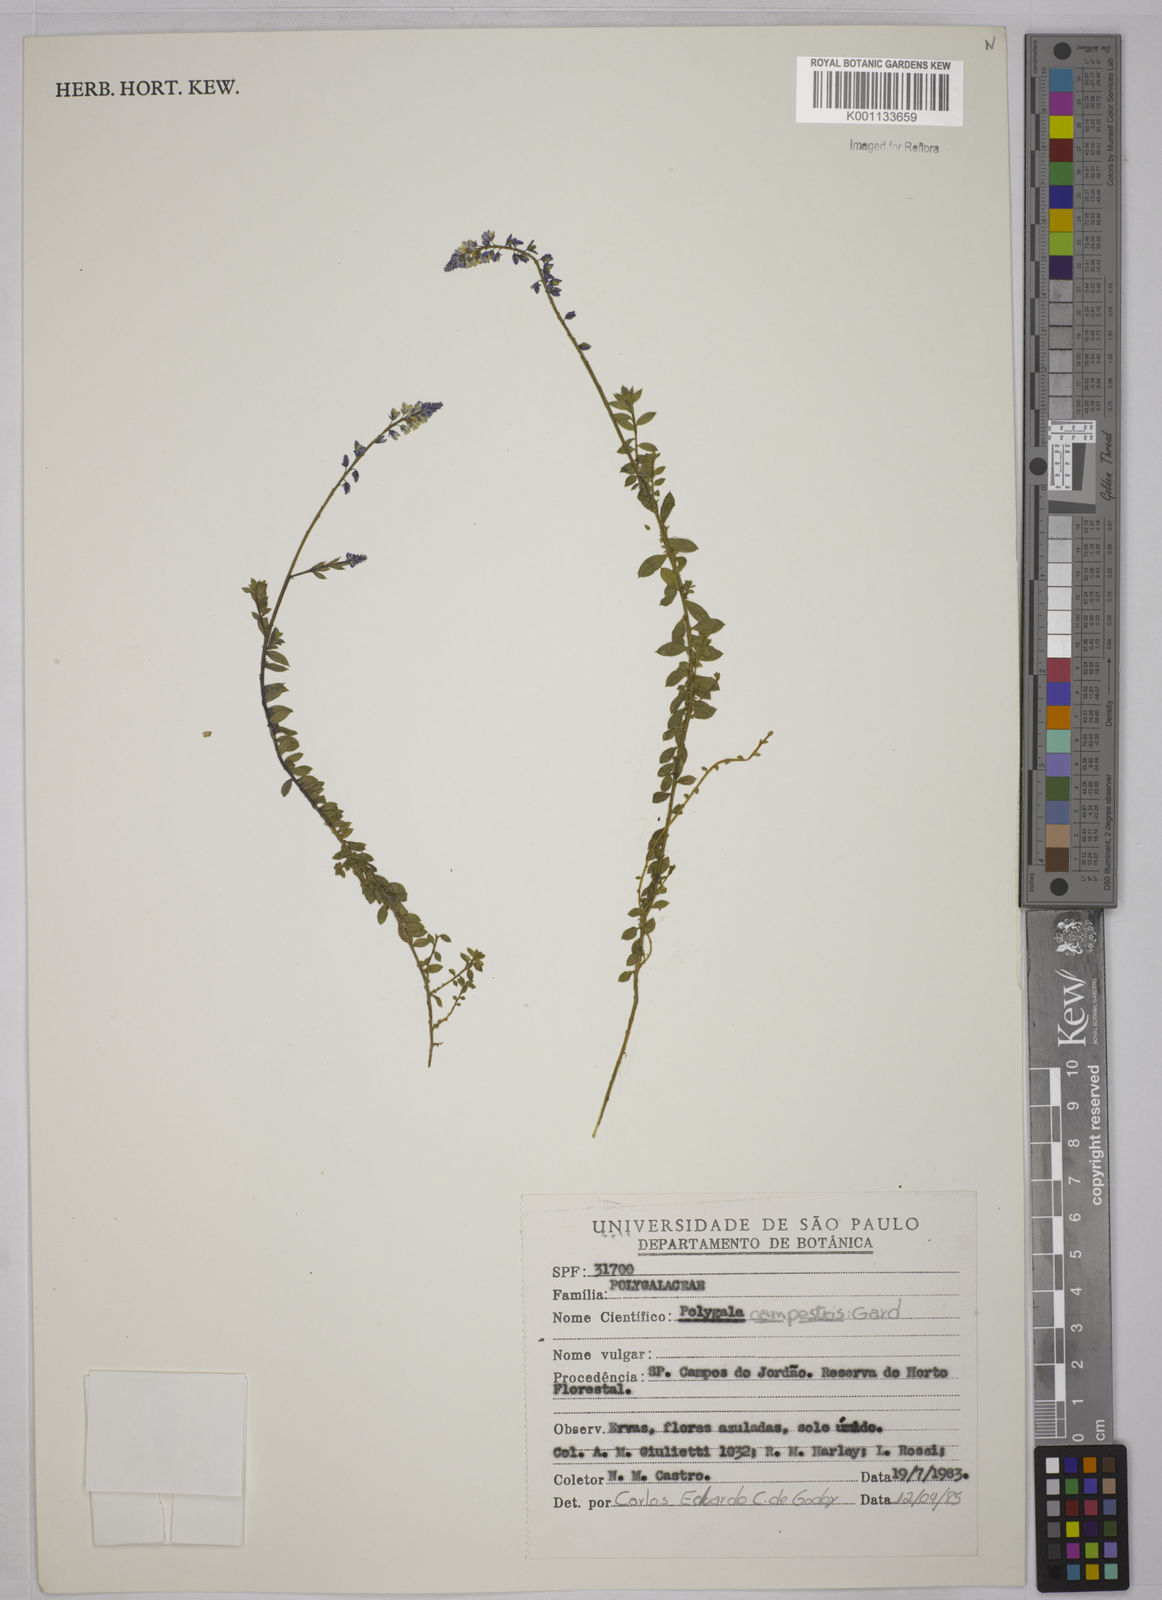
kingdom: Plantae
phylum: Tracheophyta
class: Magnoliopsida
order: Fabales
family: Polygalaceae
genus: Polygala
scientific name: Polygala campestris
